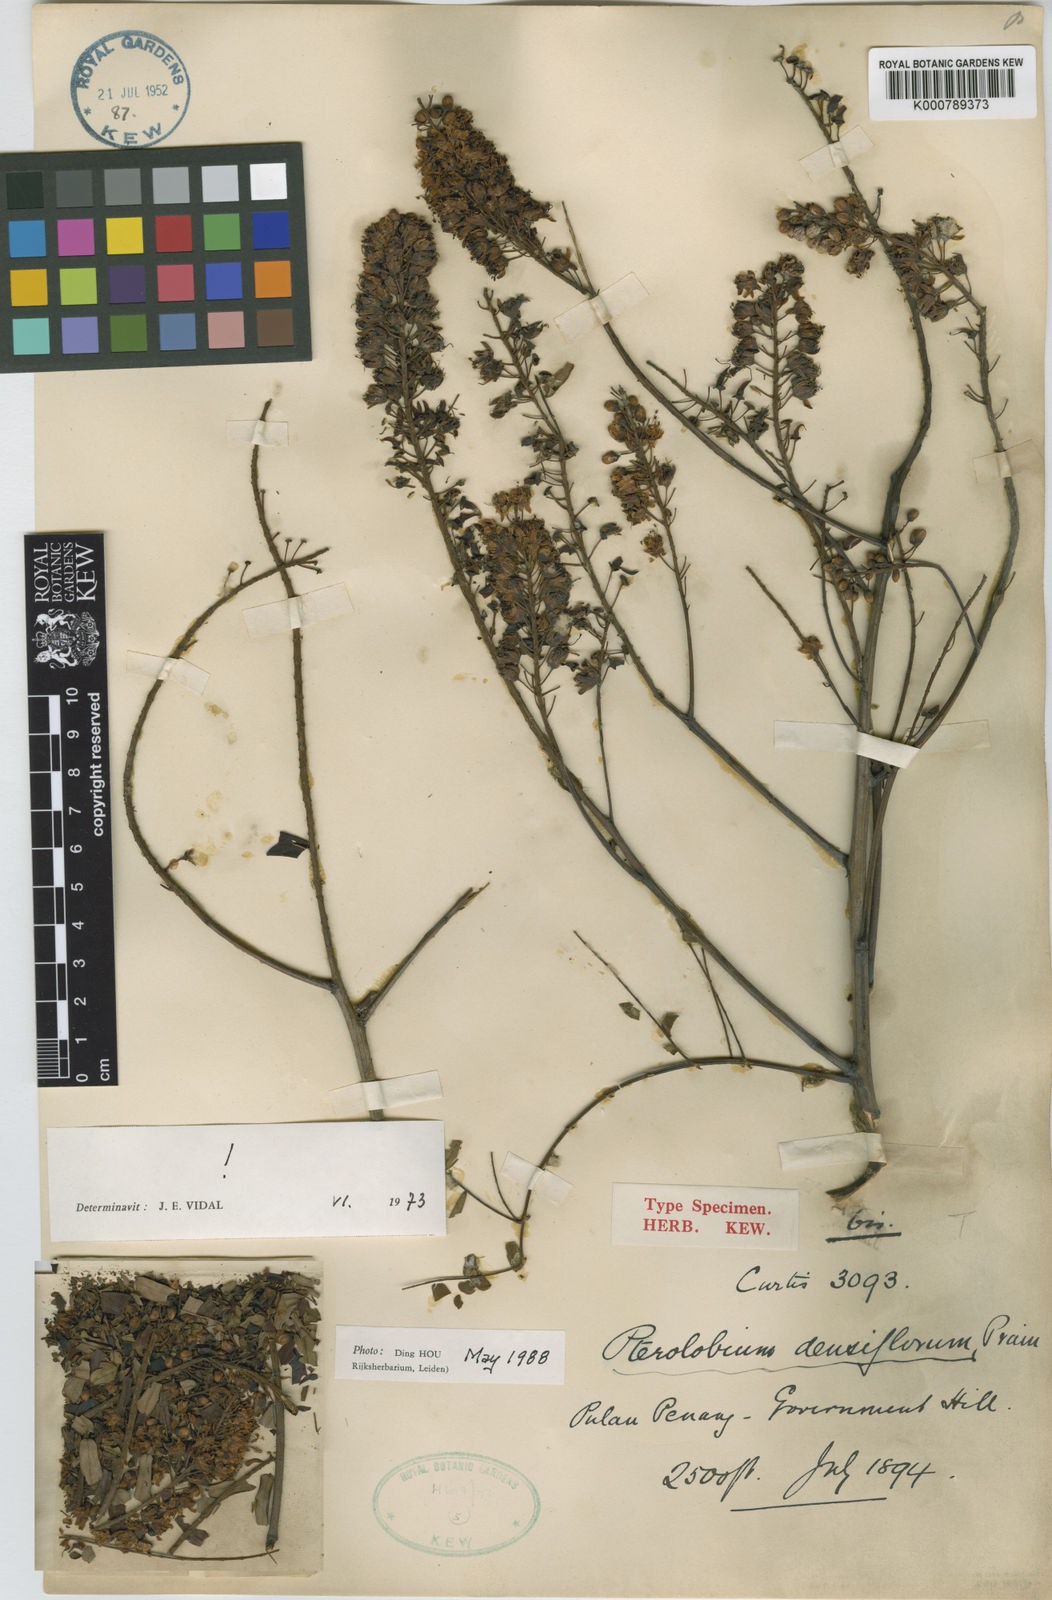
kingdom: Plantae
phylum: Tracheophyta
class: Magnoliopsida
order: Fabales
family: Fabaceae
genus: Pterolobium
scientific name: Pterolobium
